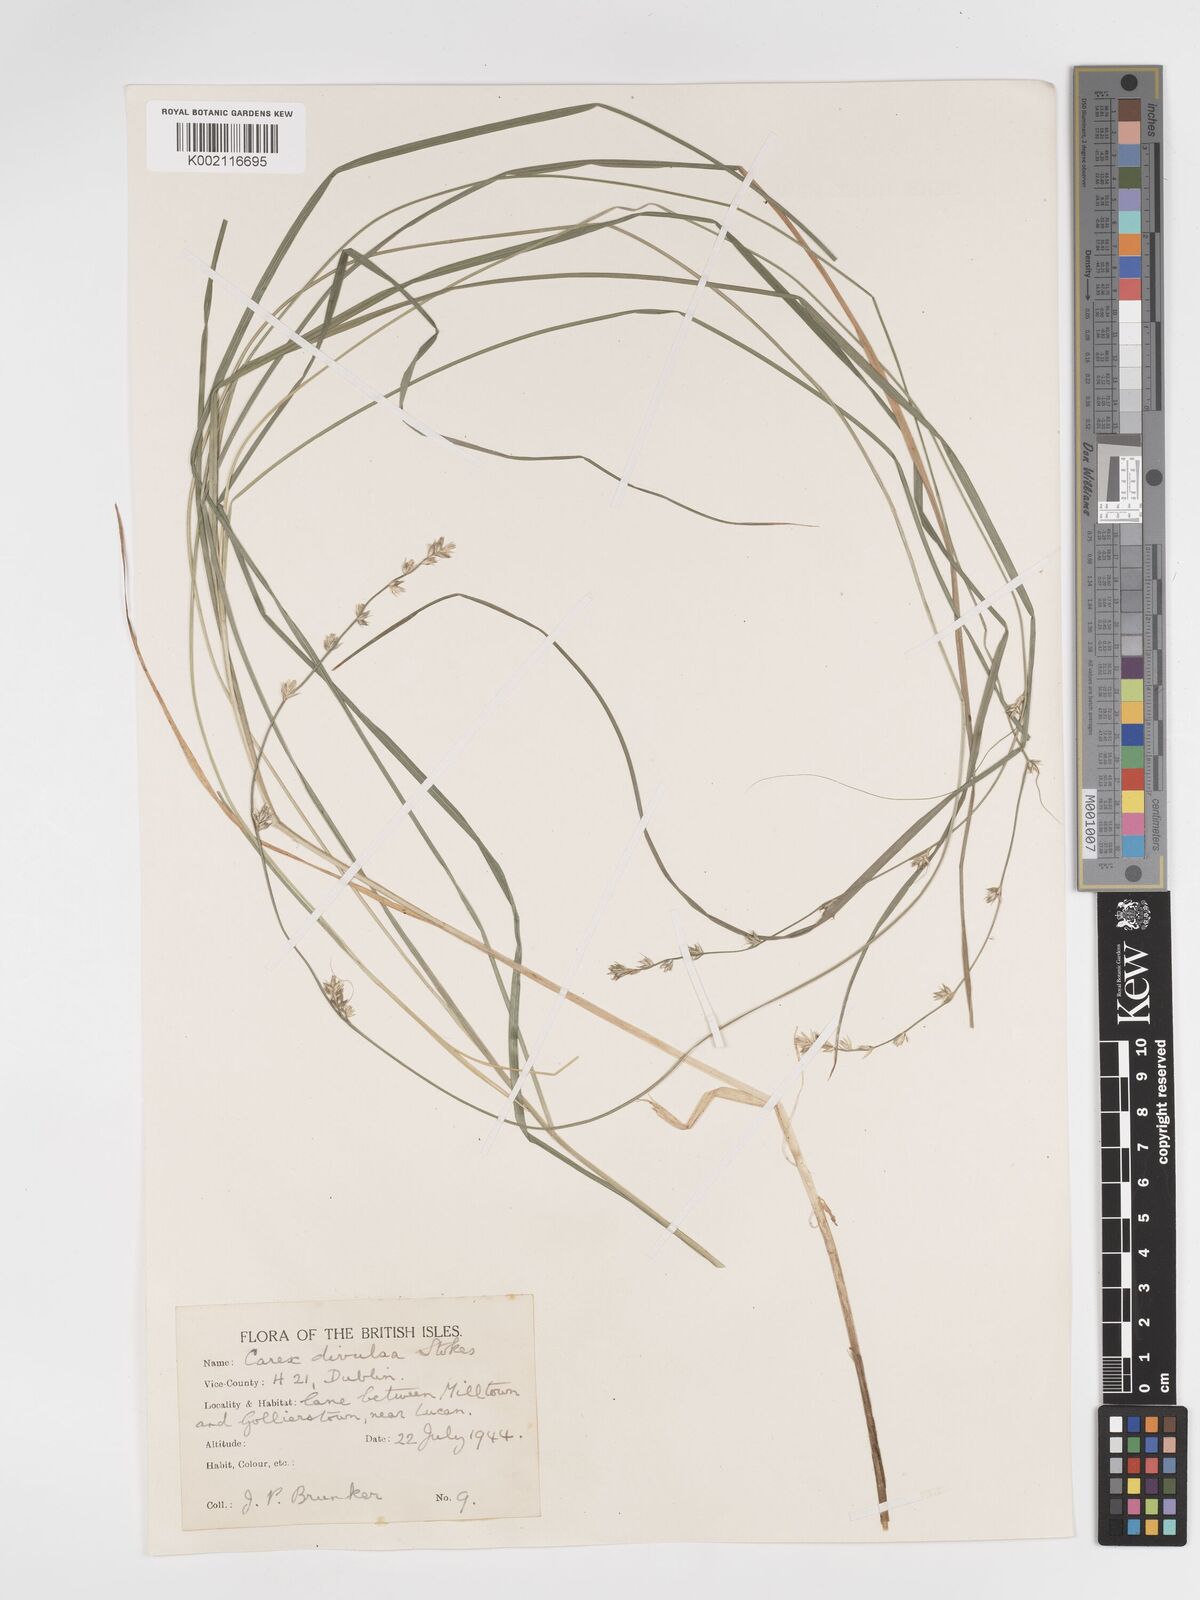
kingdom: Plantae
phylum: Tracheophyta
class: Liliopsida
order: Poales
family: Cyperaceae
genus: Carex
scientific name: Carex divulsa
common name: Grassland sedge
